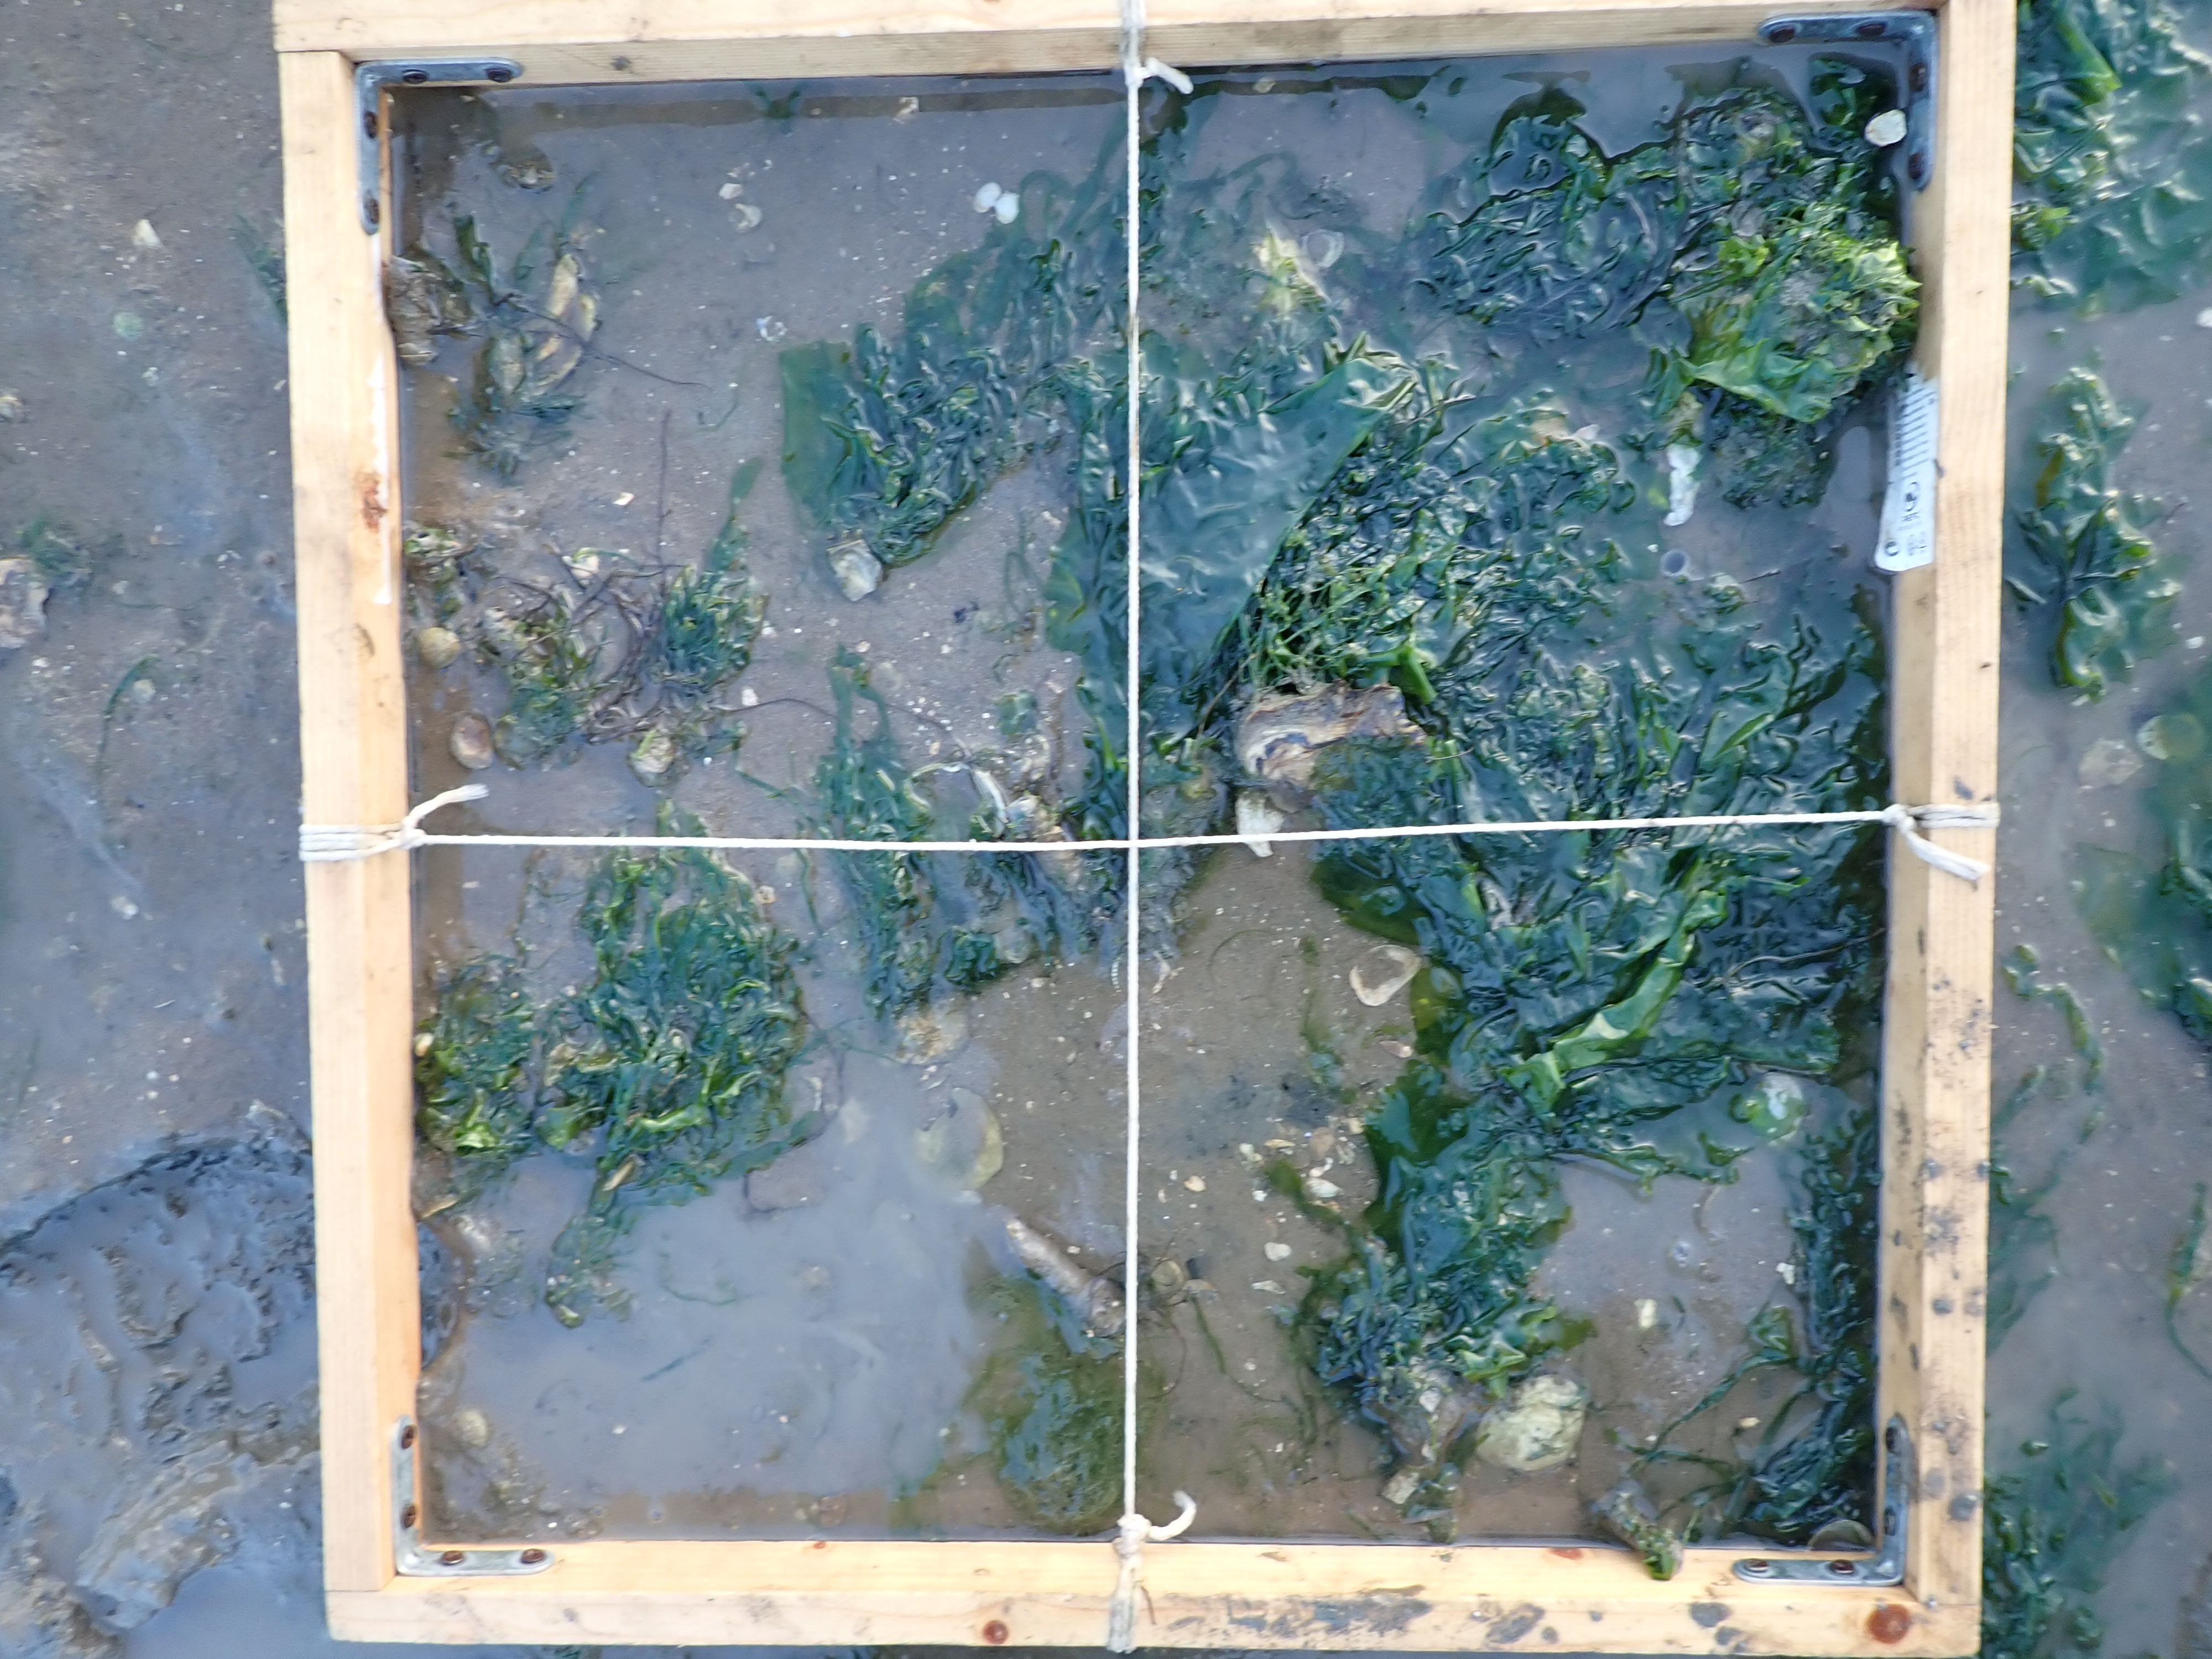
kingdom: Plantae
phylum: Chlorophyta
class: Ulvophyceae
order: Ulvales
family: Ulvaceae
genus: Ulva
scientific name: Ulva
